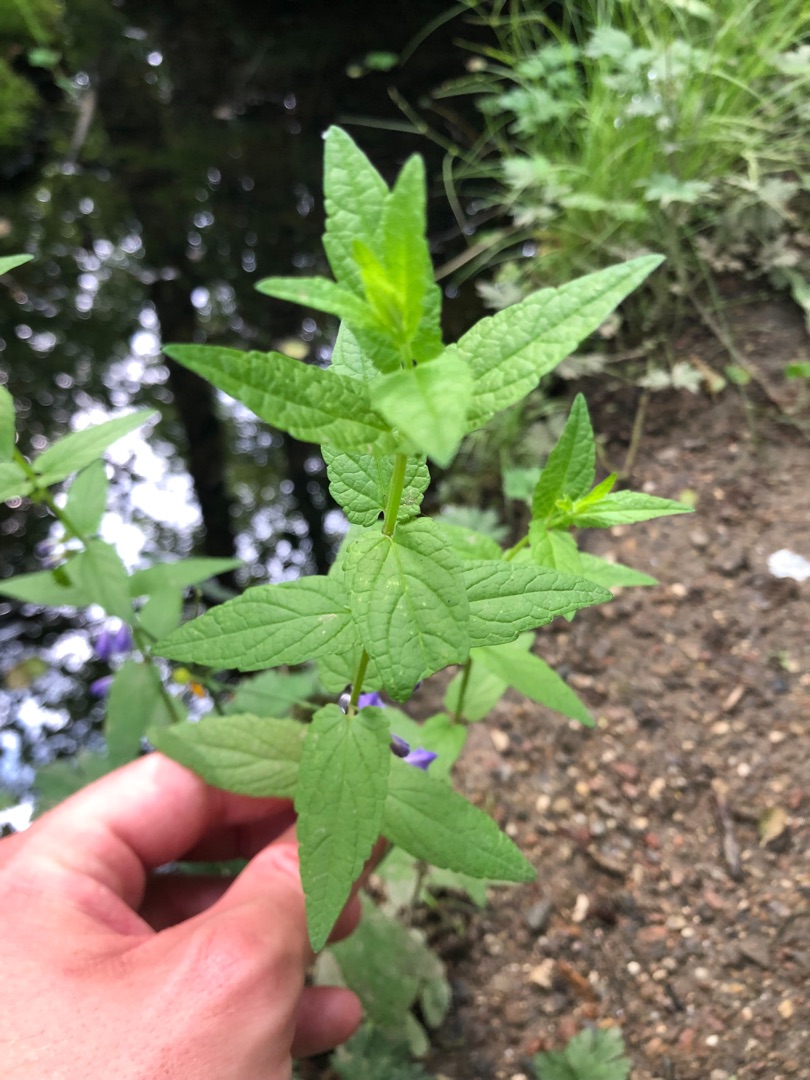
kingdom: Plantae
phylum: Tracheophyta
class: Magnoliopsida
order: Lamiales
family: Lamiaceae
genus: Scutellaria
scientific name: Scutellaria galericulata
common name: Almindelig skjolddrager
